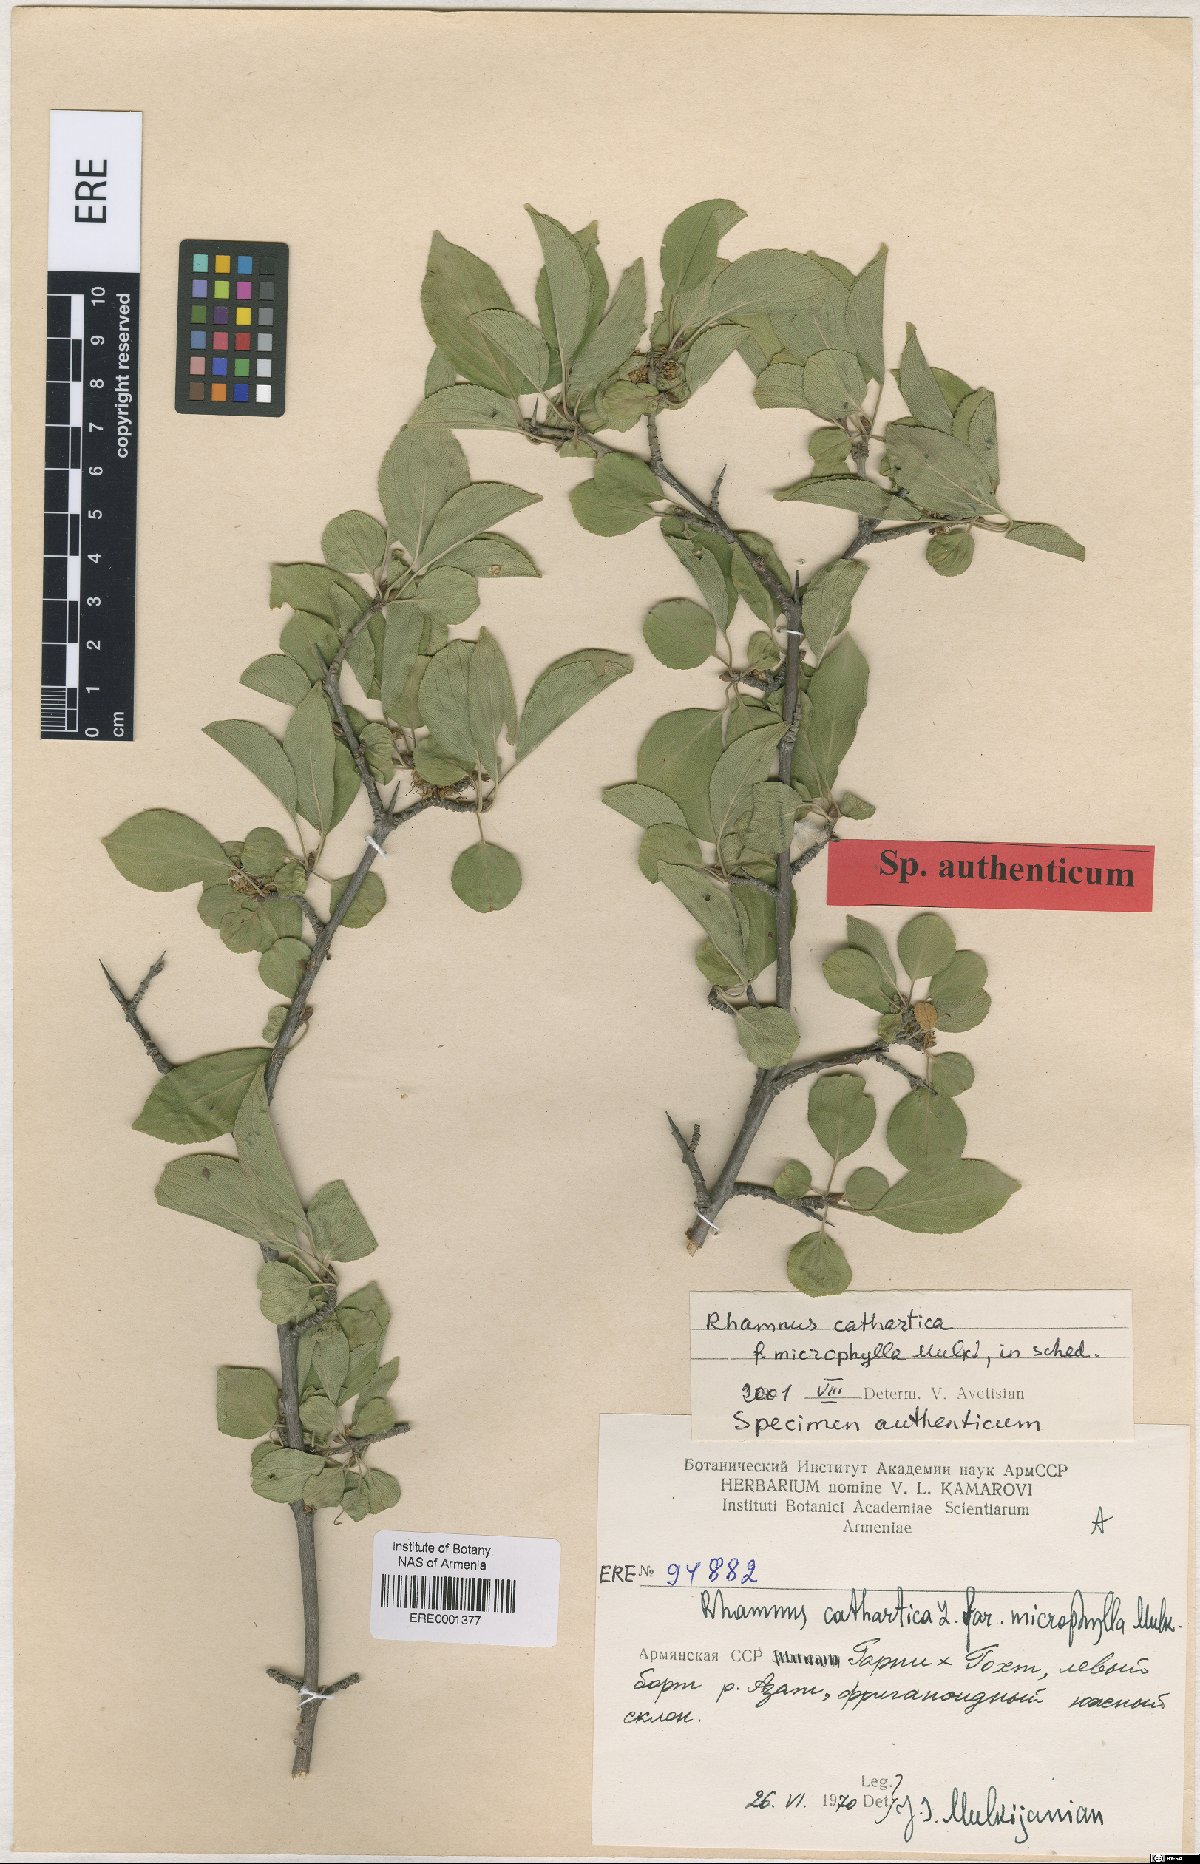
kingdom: Plantae
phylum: Tracheophyta
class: Magnoliopsida
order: Rosales
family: Rhamnaceae
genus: Rhamnus
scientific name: Rhamnus cathartica
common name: Common buckthorn
